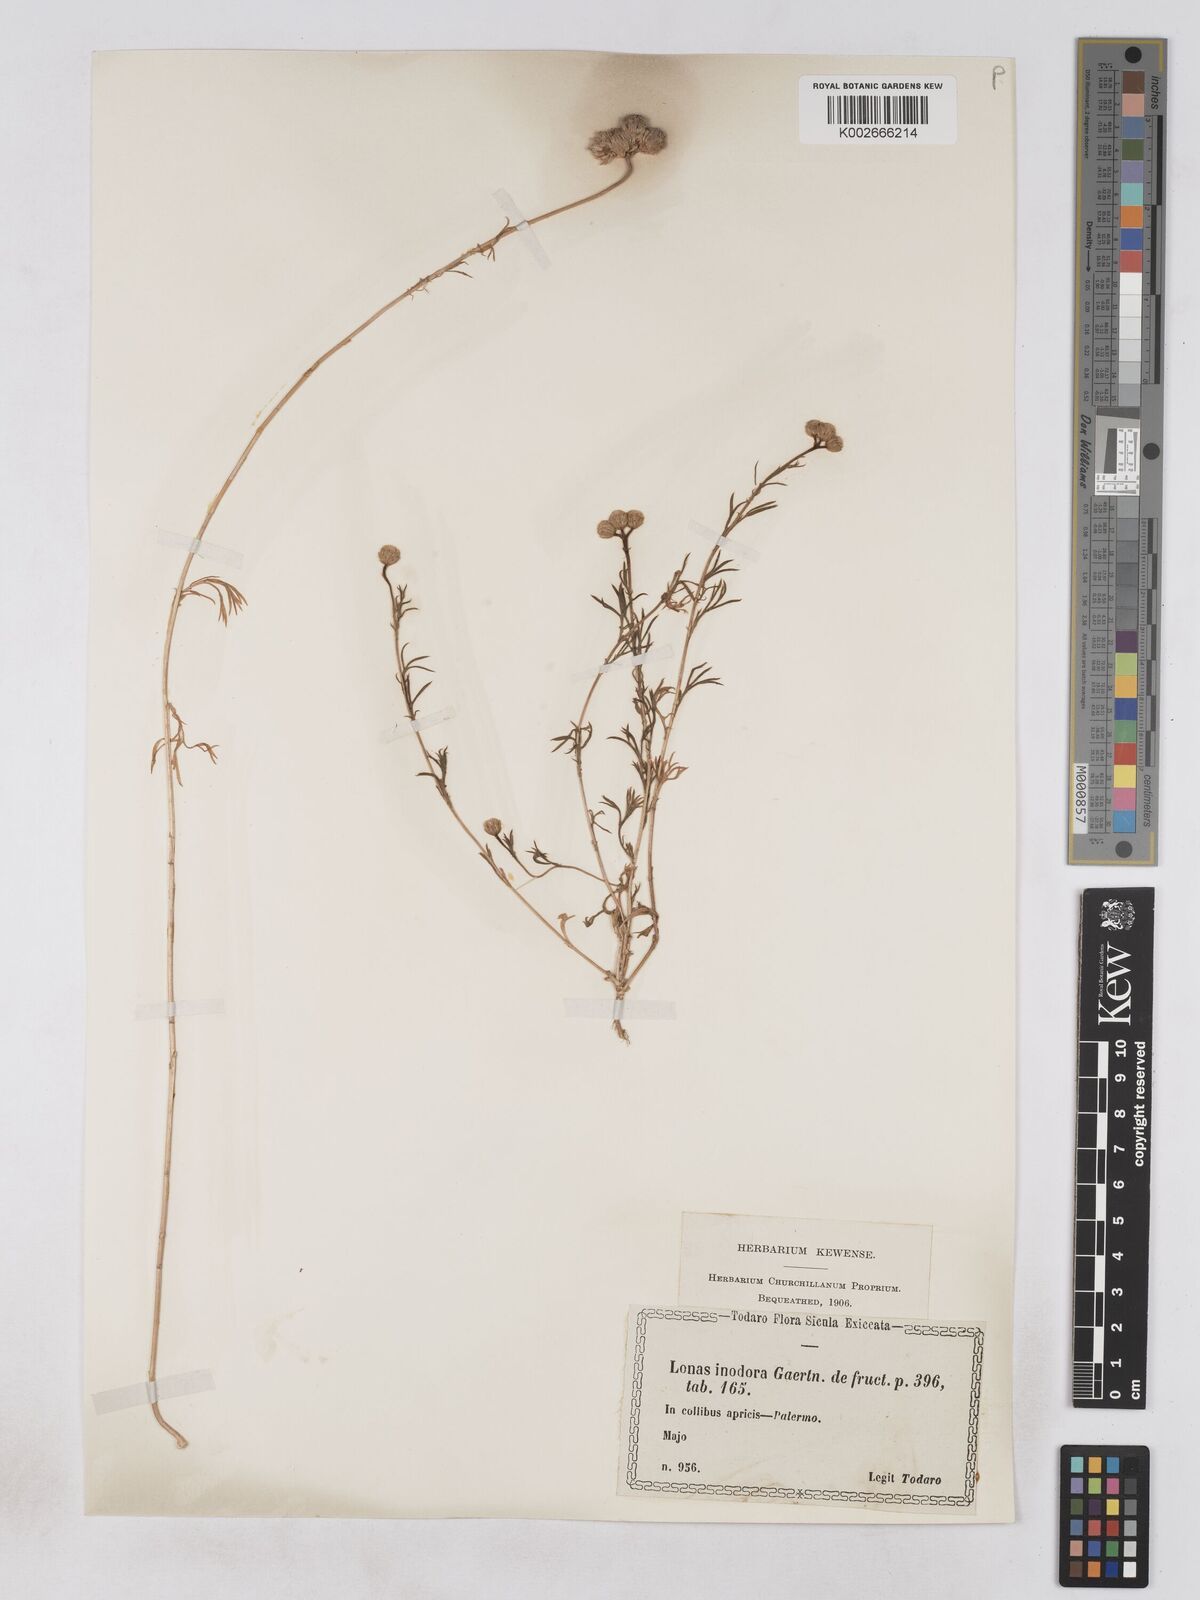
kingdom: Plantae
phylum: Tracheophyta
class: Magnoliopsida
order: Asterales
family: Asteraceae
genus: Lonas
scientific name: Lonas
